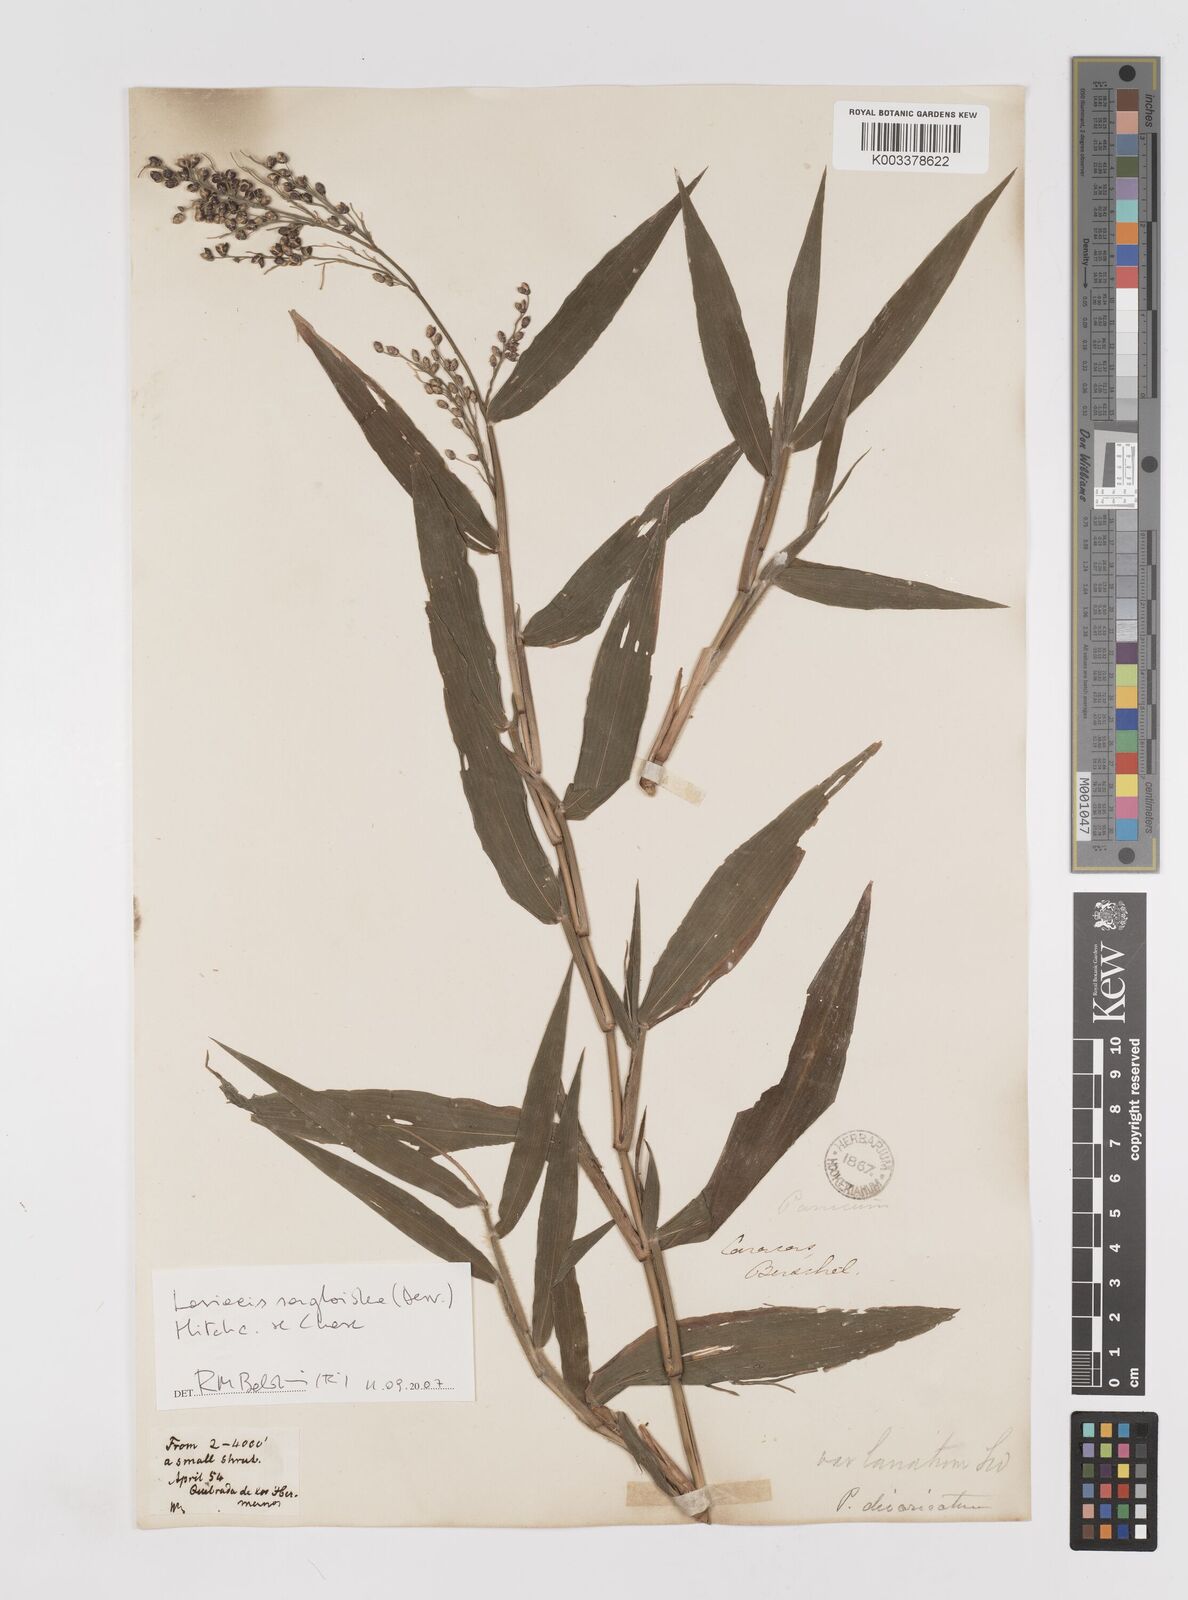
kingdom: Plantae
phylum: Tracheophyta
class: Liliopsida
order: Poales
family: Poaceae
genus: Lasiacis
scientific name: Lasiacis maculata
